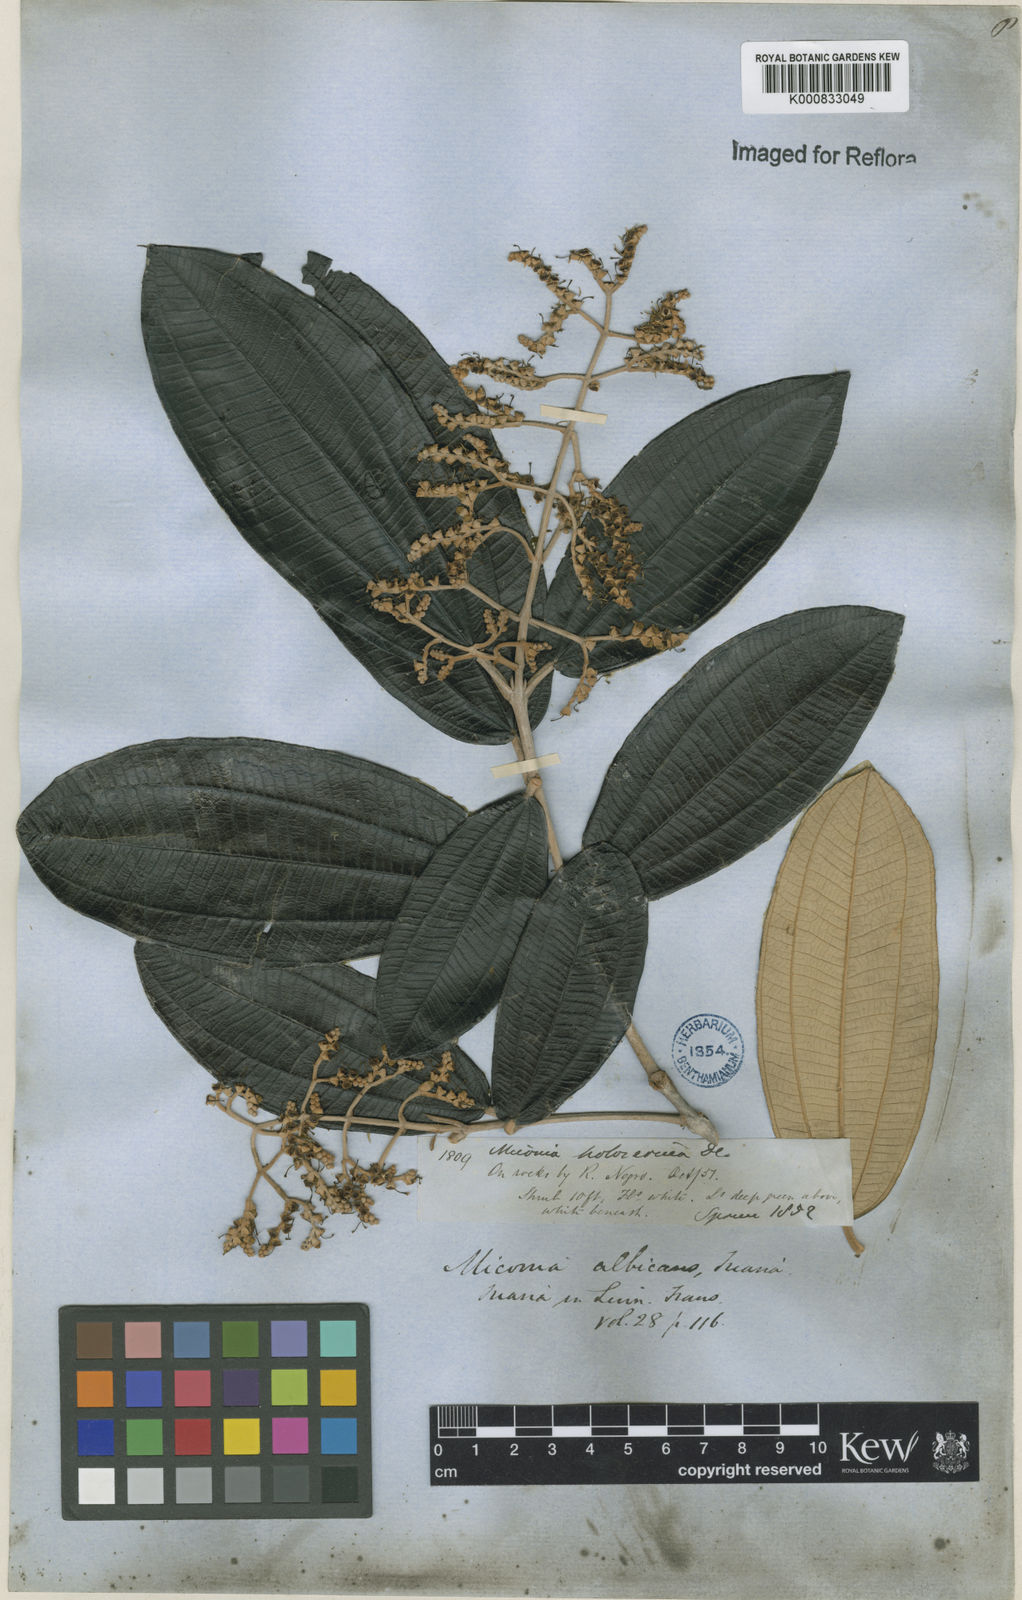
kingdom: Plantae
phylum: Tracheophyta
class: Magnoliopsida
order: Myrtales
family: Melastomataceae
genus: Miconia
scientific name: Miconia
